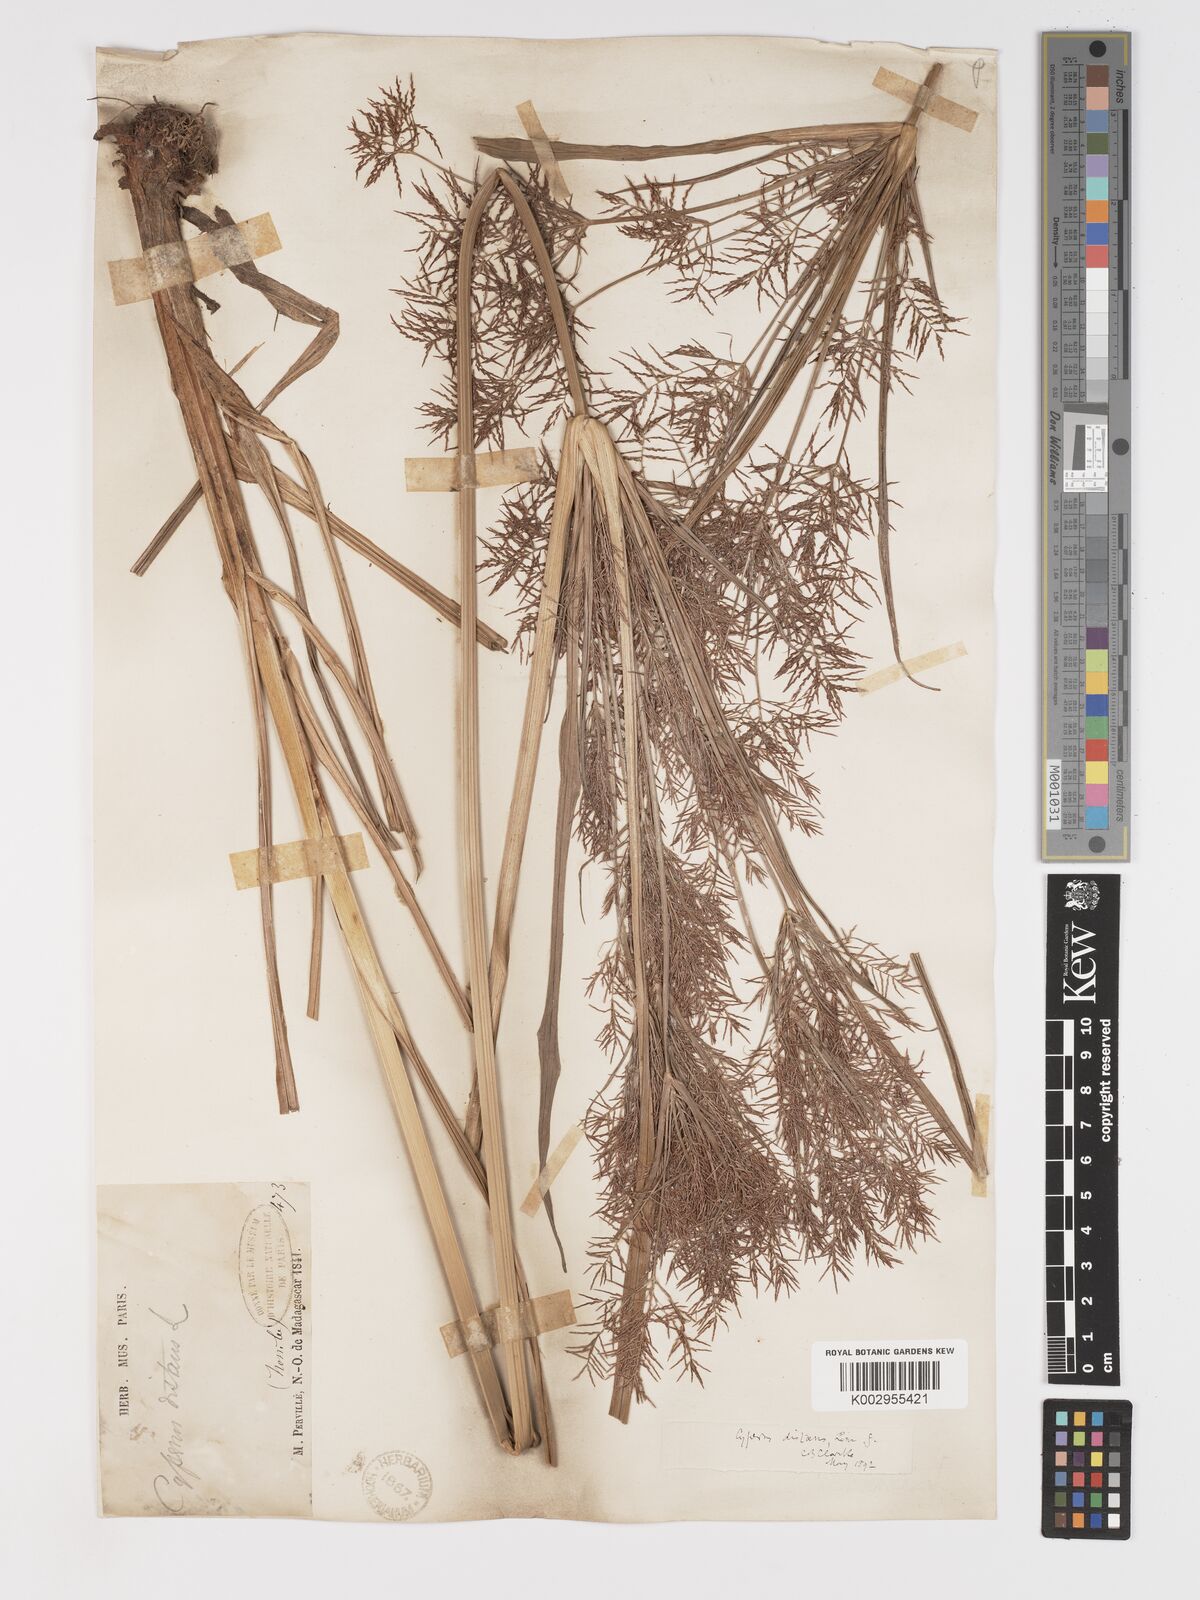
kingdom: Plantae
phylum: Tracheophyta
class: Liliopsida
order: Poales
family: Cyperaceae
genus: Cyperus
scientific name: Cyperus distans
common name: Slender cyperus
